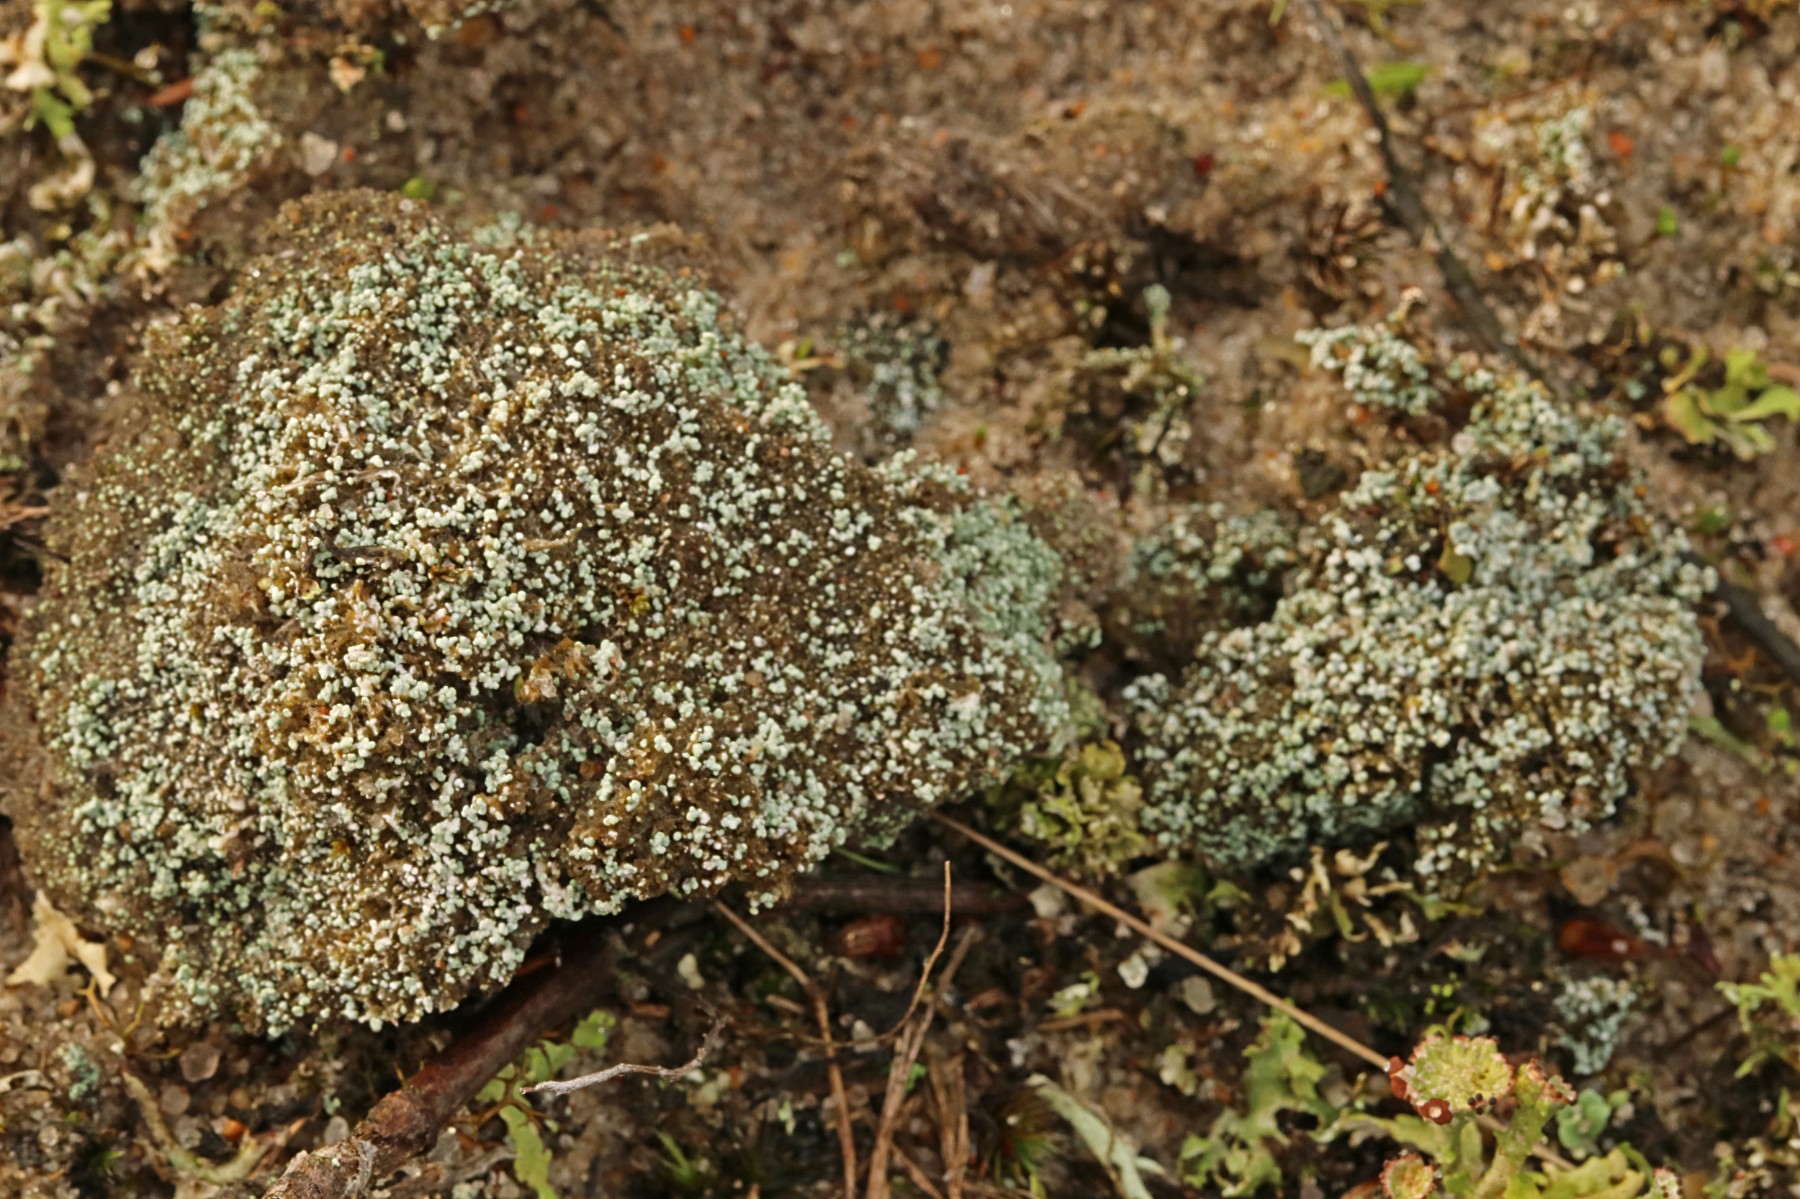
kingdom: Fungi
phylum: Ascomycota
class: Lecanoromycetes
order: Lecanorales
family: Stereocaulaceae
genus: Stereocaulon
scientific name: Stereocaulon condensatum
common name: lav korallav
